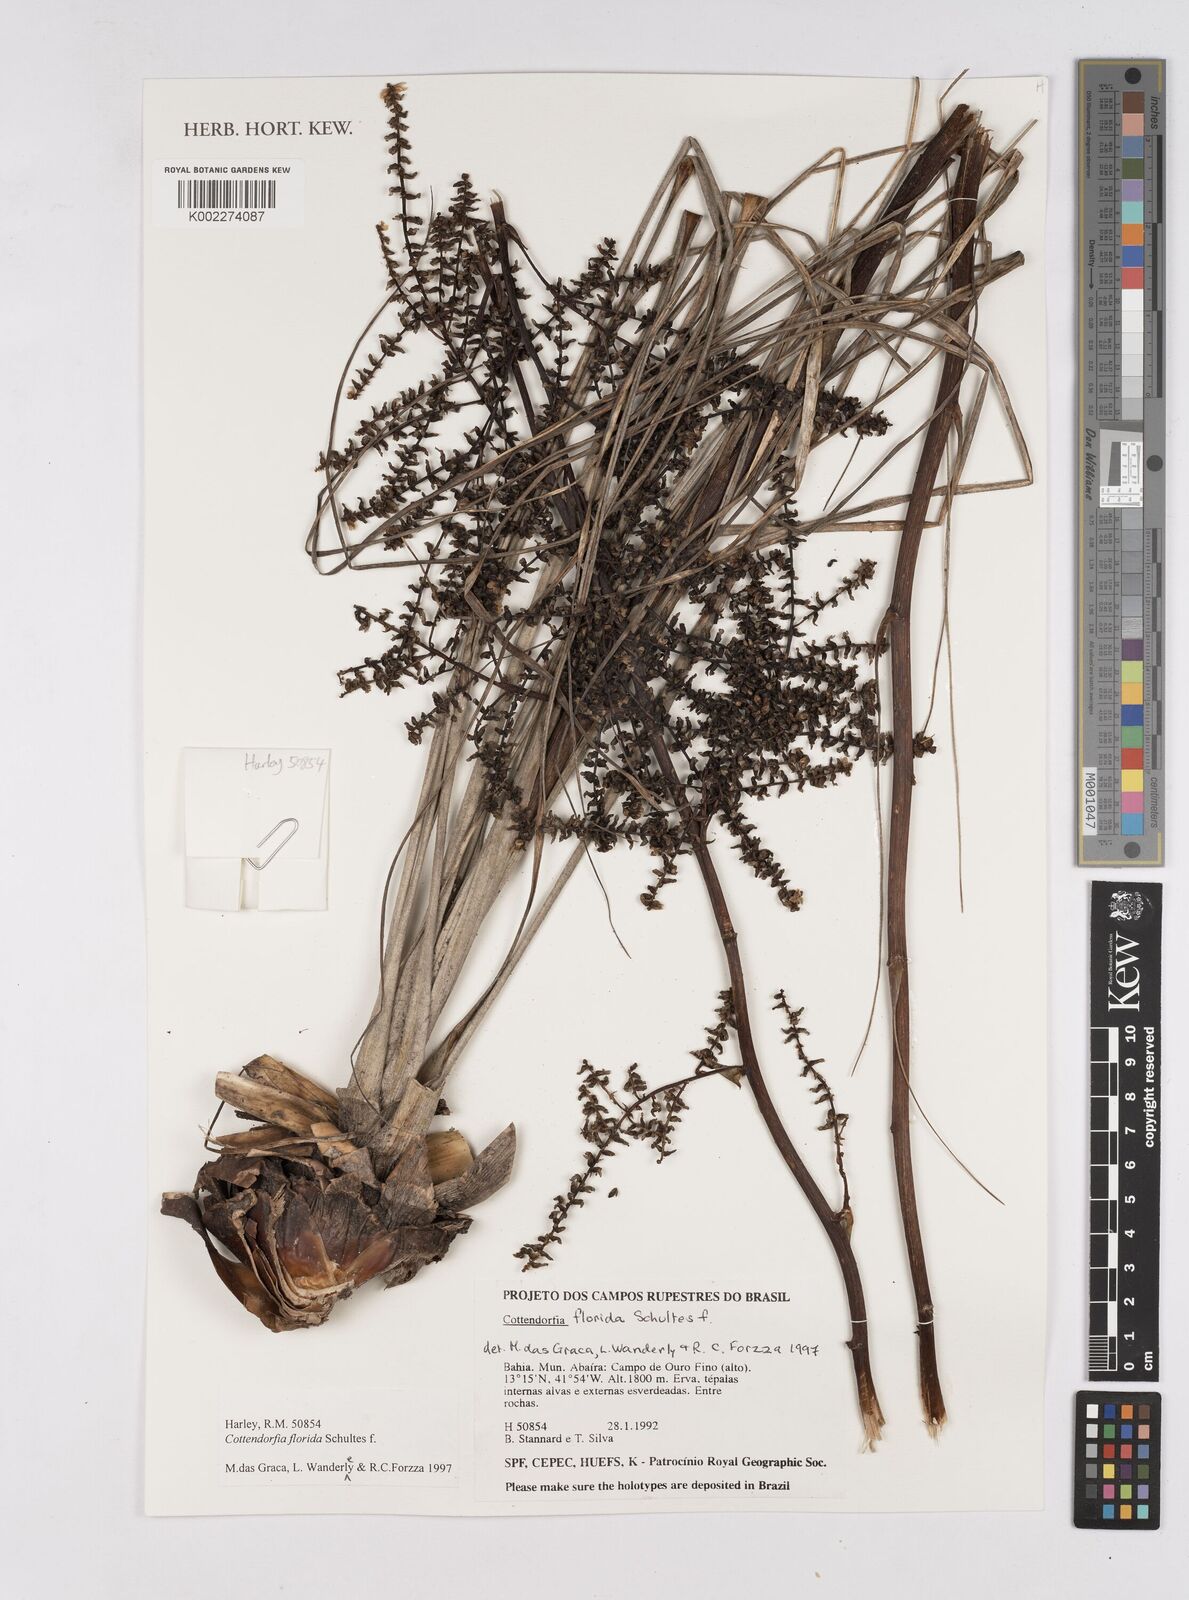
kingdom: Plantae
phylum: Tracheophyta
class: Liliopsida
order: Poales
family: Bromeliaceae
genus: Cottendorfia
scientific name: Cottendorfia florida
